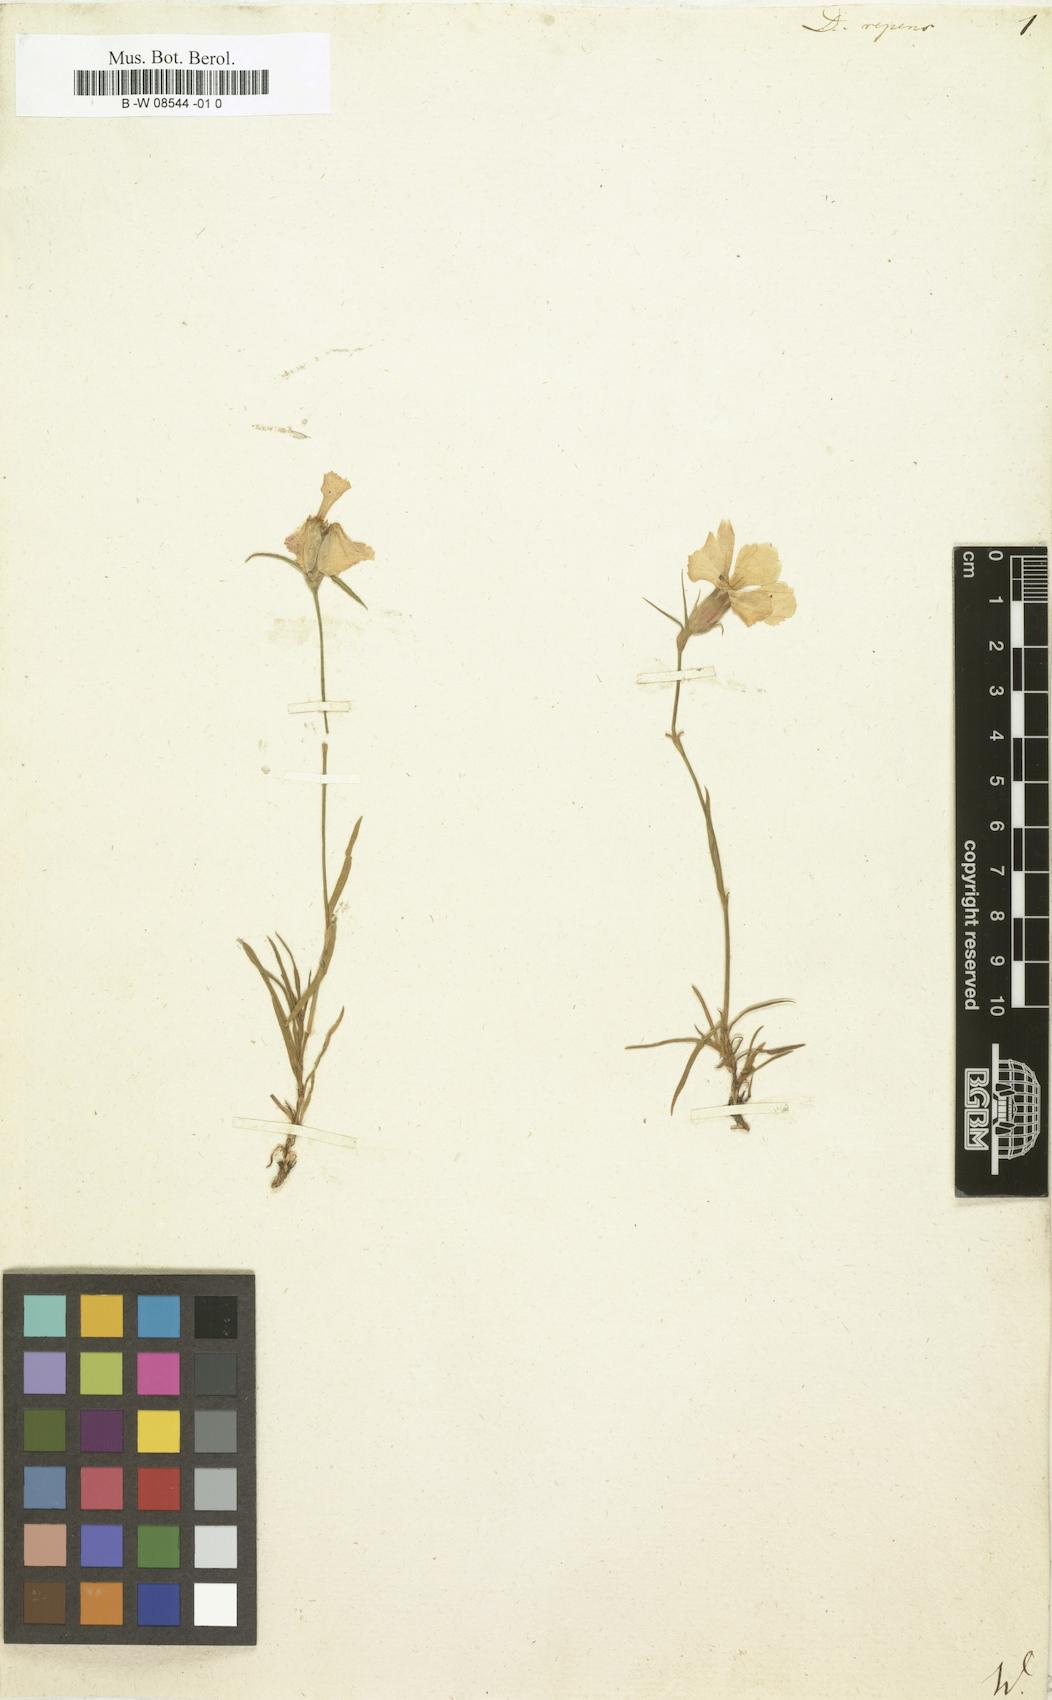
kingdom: Plantae
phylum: Tracheophyta
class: Magnoliopsida
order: Caryophyllales
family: Caryophyllaceae
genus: Dianthus
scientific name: Dianthus repens
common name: Northern pink
